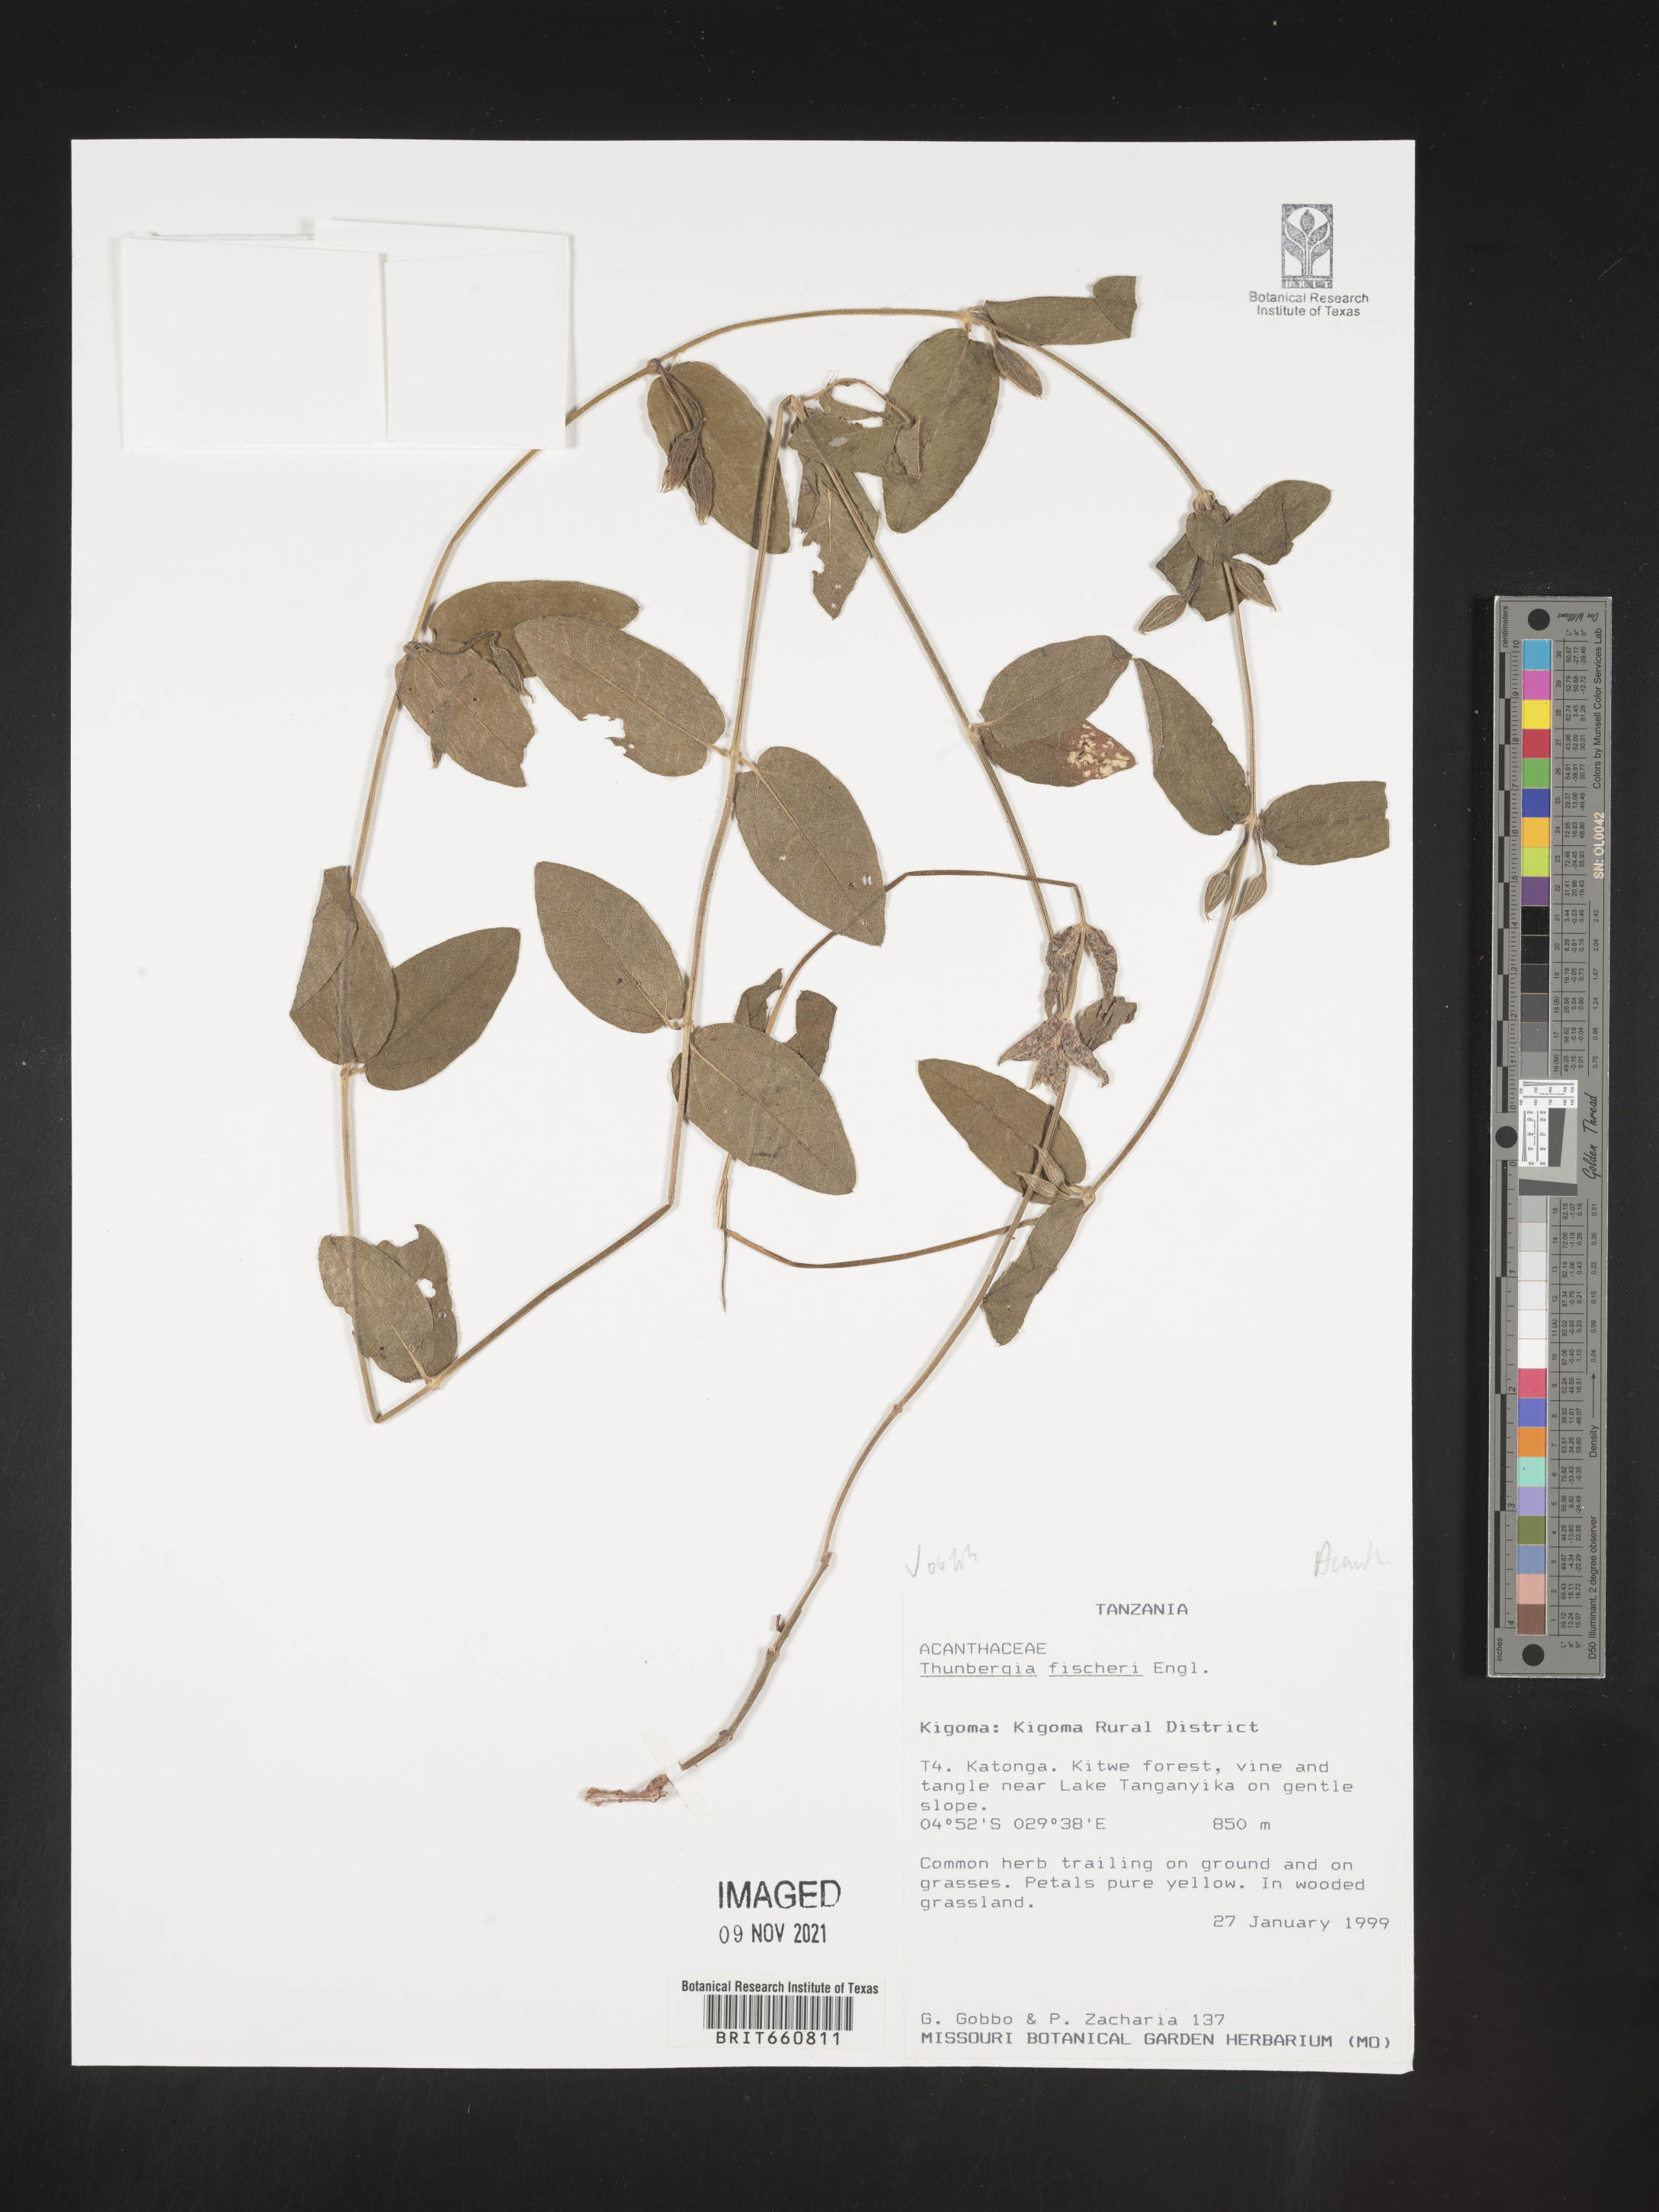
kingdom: Plantae
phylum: Tracheophyta
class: Magnoliopsida
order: Lamiales
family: Acanthaceae
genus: Thunbergia
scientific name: Thunbergia
